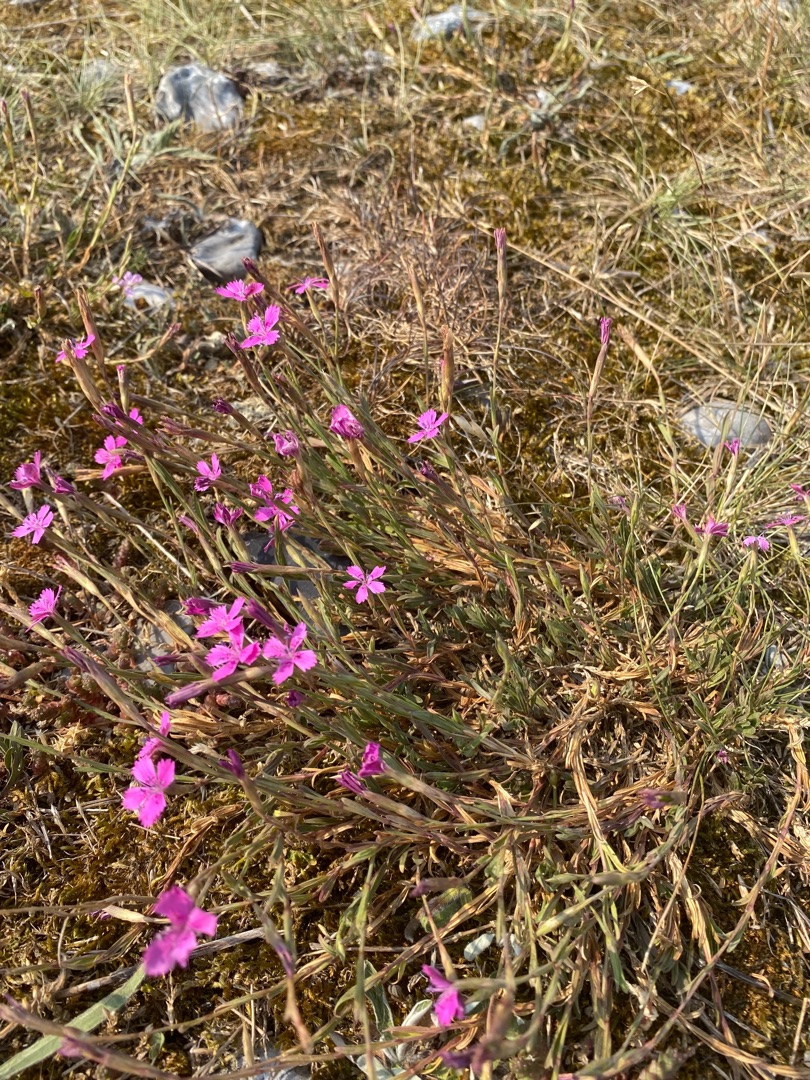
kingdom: Plantae
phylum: Tracheophyta
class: Magnoliopsida
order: Caryophyllales
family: Caryophyllaceae
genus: Dianthus
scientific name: Dianthus deltoides
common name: Bakke-nellike
